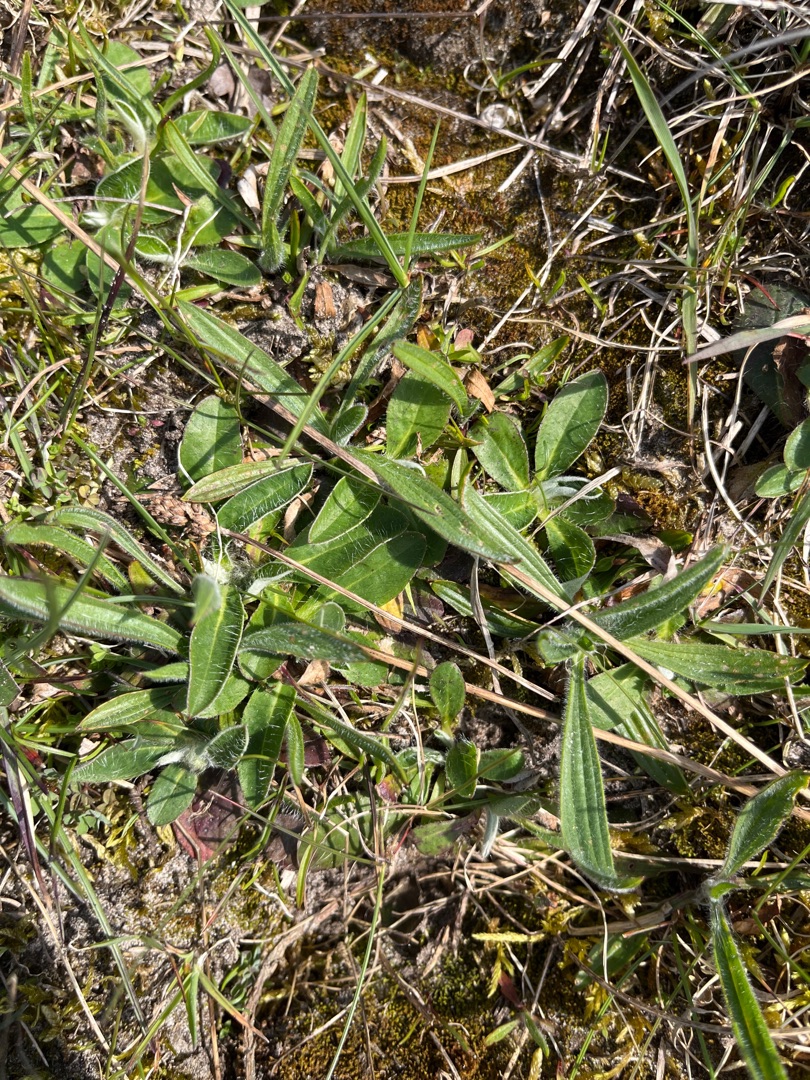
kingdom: Plantae
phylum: Tracheophyta
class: Magnoliopsida
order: Asterales
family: Asteraceae
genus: Pilosella
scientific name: Pilosella officinarum
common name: Håret høgeurt
